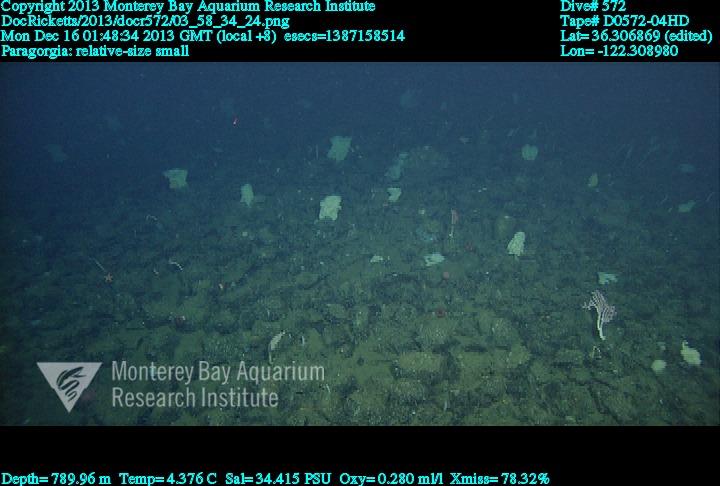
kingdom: Animalia
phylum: Cnidaria
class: Anthozoa
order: Scleralcyonacea
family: Coralliidae
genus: Sibogagorgia
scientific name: Sibogagorgia cauliflora
